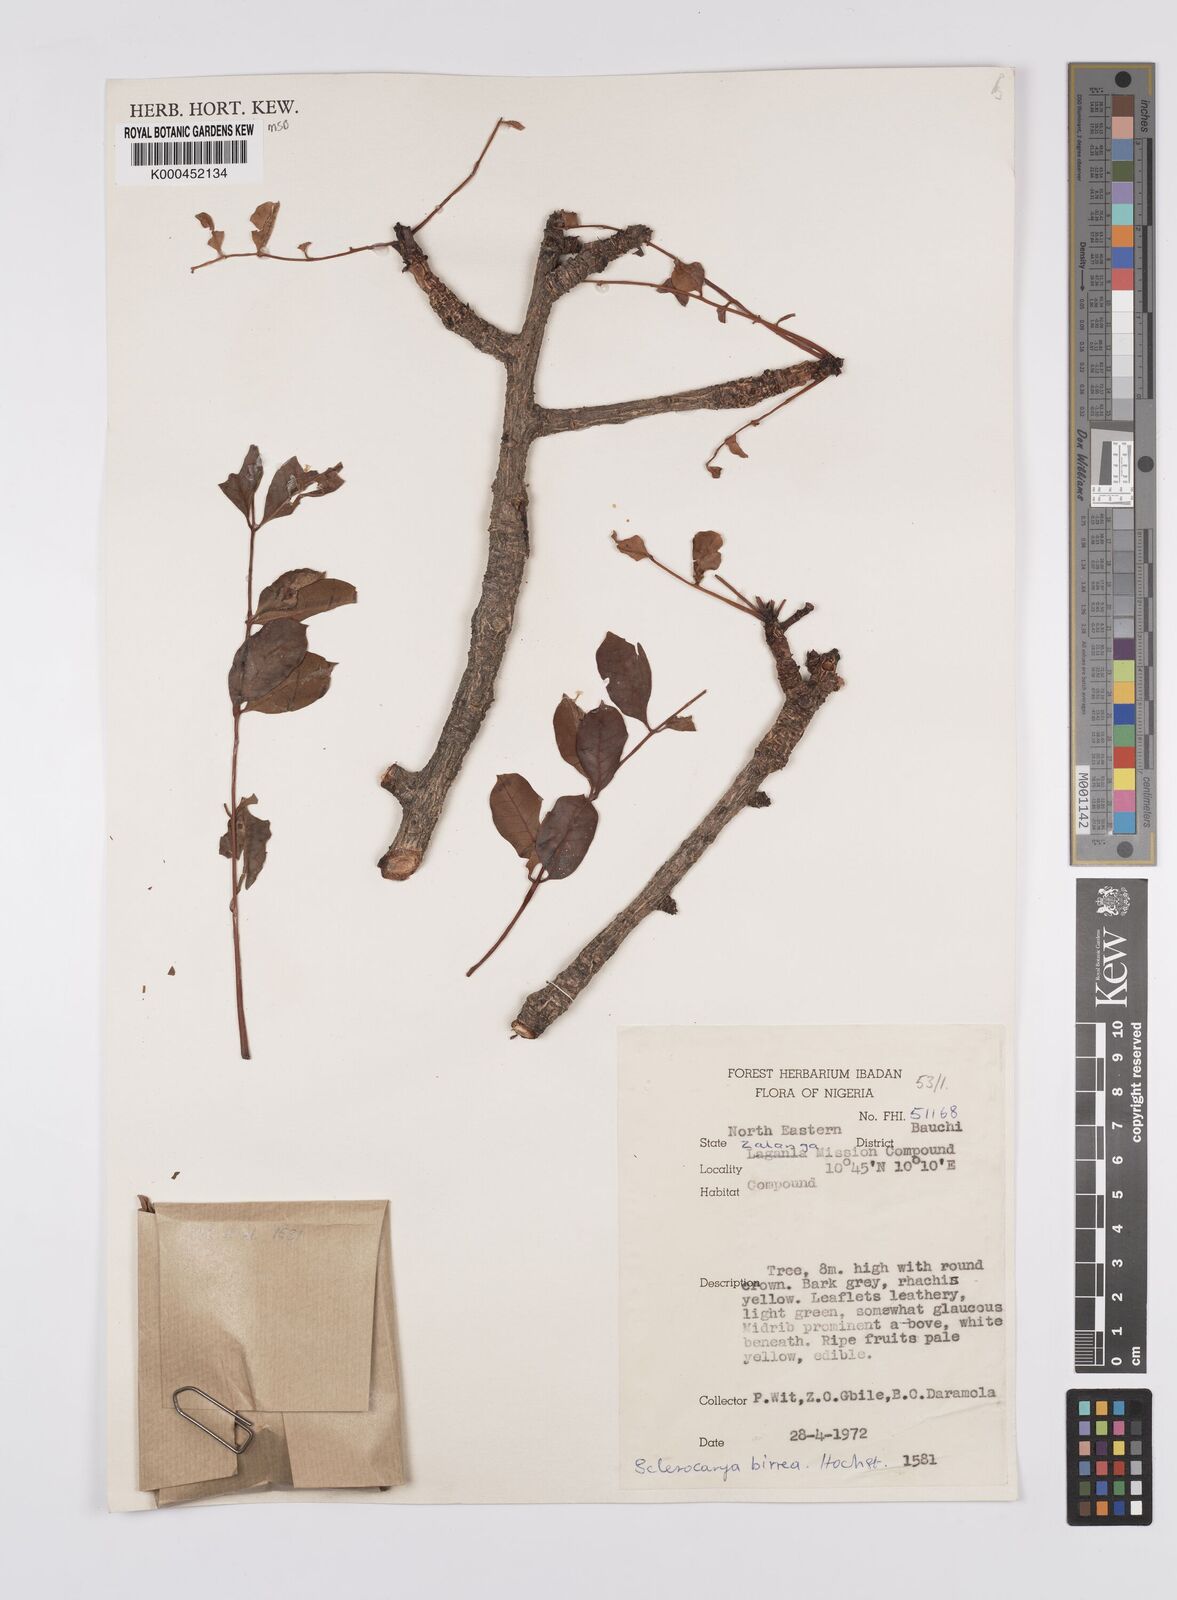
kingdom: Plantae
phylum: Tracheophyta
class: Magnoliopsida
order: Sapindales
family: Anacardiaceae
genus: Sclerocarya
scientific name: Sclerocarya birrea
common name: Marula
